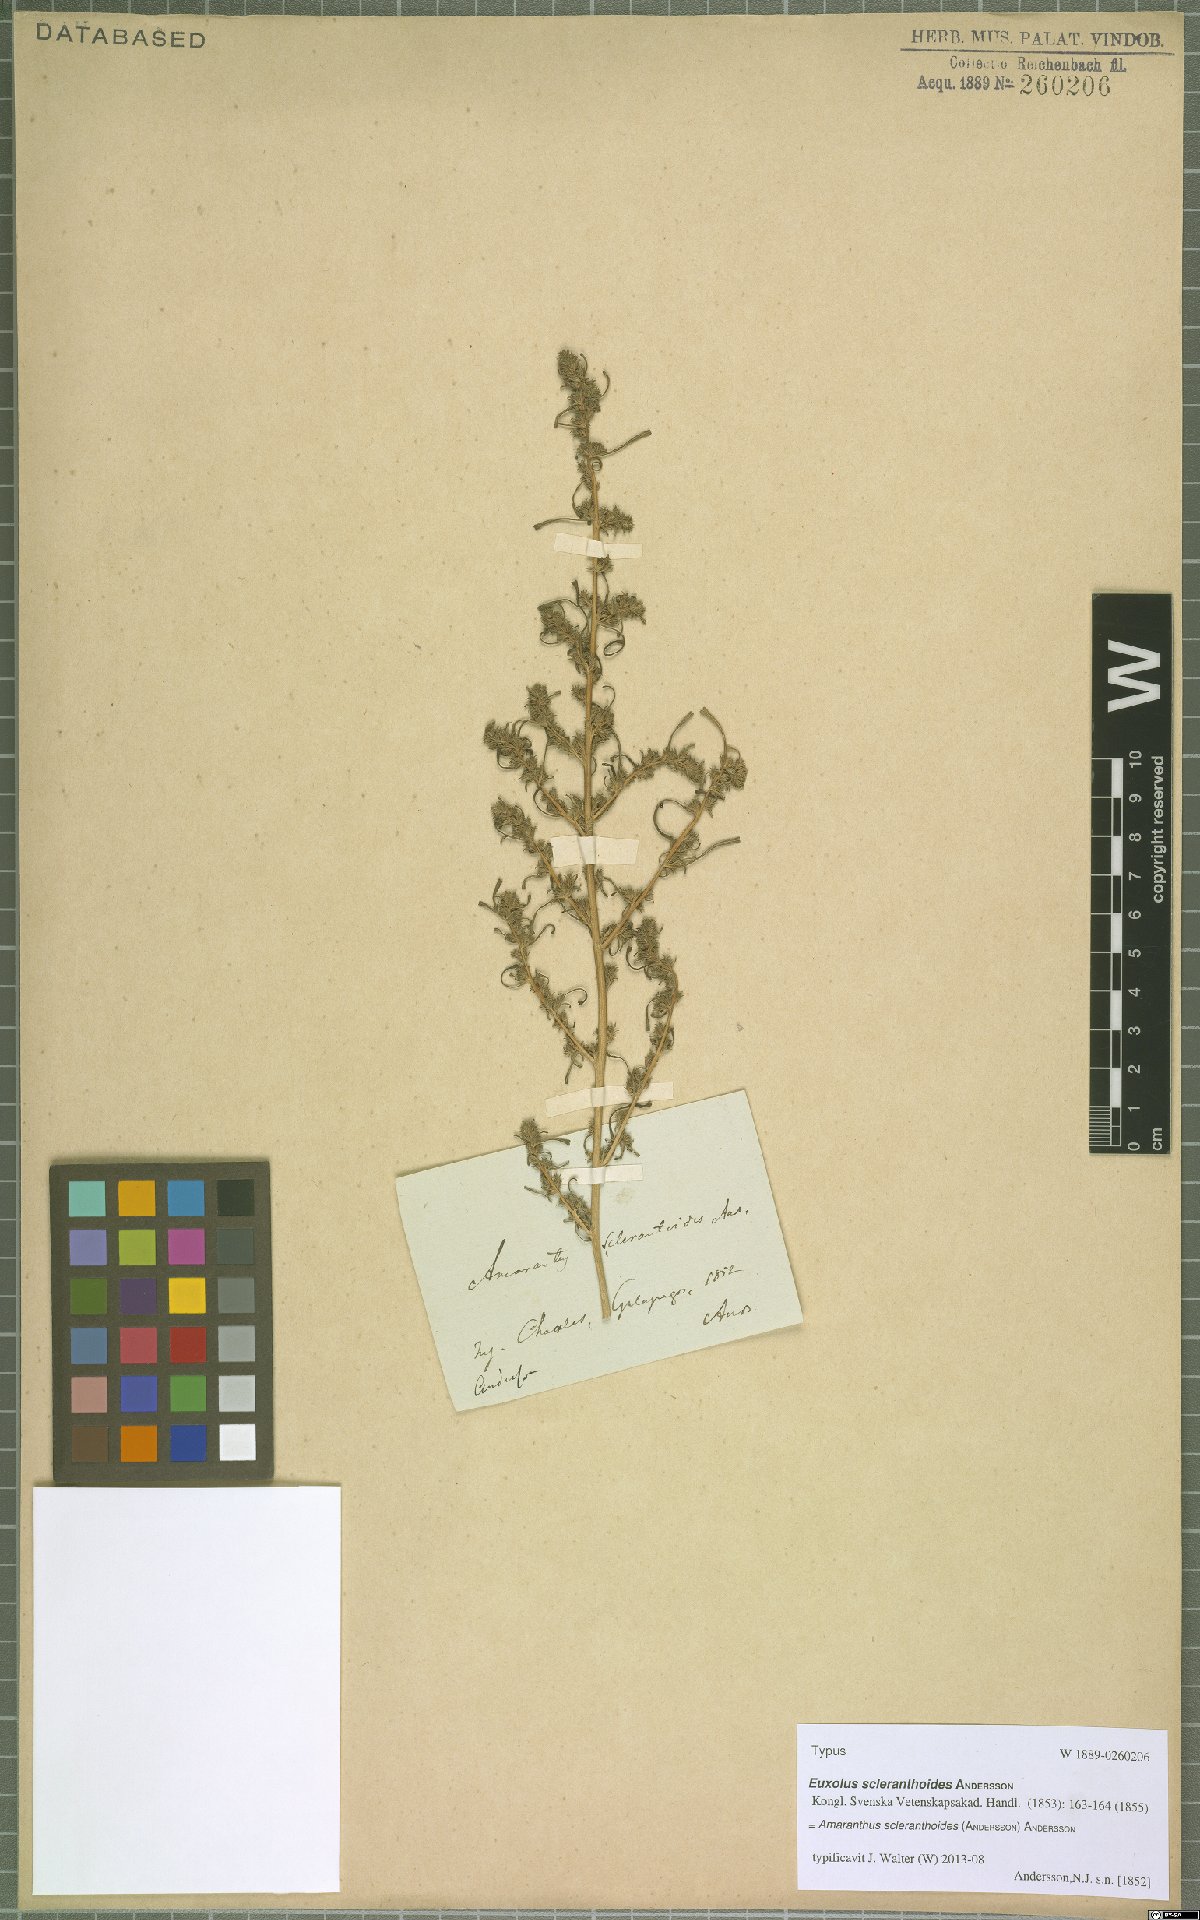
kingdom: Plantae
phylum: Tracheophyta
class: Magnoliopsida
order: Caryophyllales
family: Amaranthaceae
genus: Amaranthus
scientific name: Amaranthus sclerantoides
